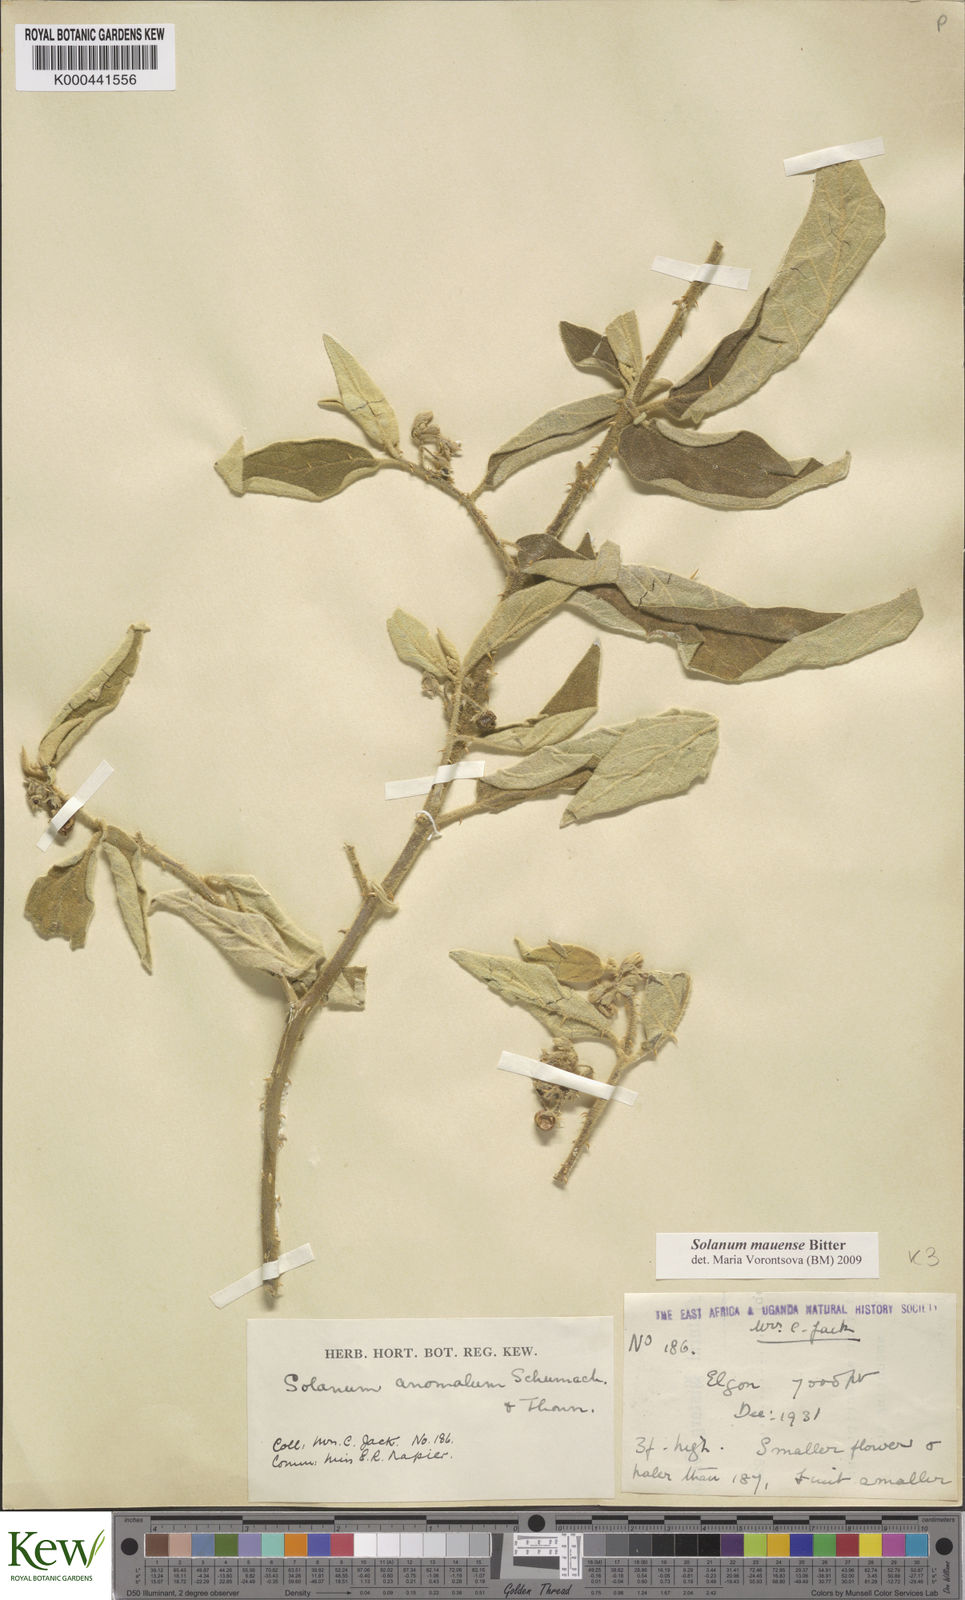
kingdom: Plantae
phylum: Tracheophyta
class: Magnoliopsida
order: Solanales
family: Solanaceae
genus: Solanum
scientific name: Solanum mauense
